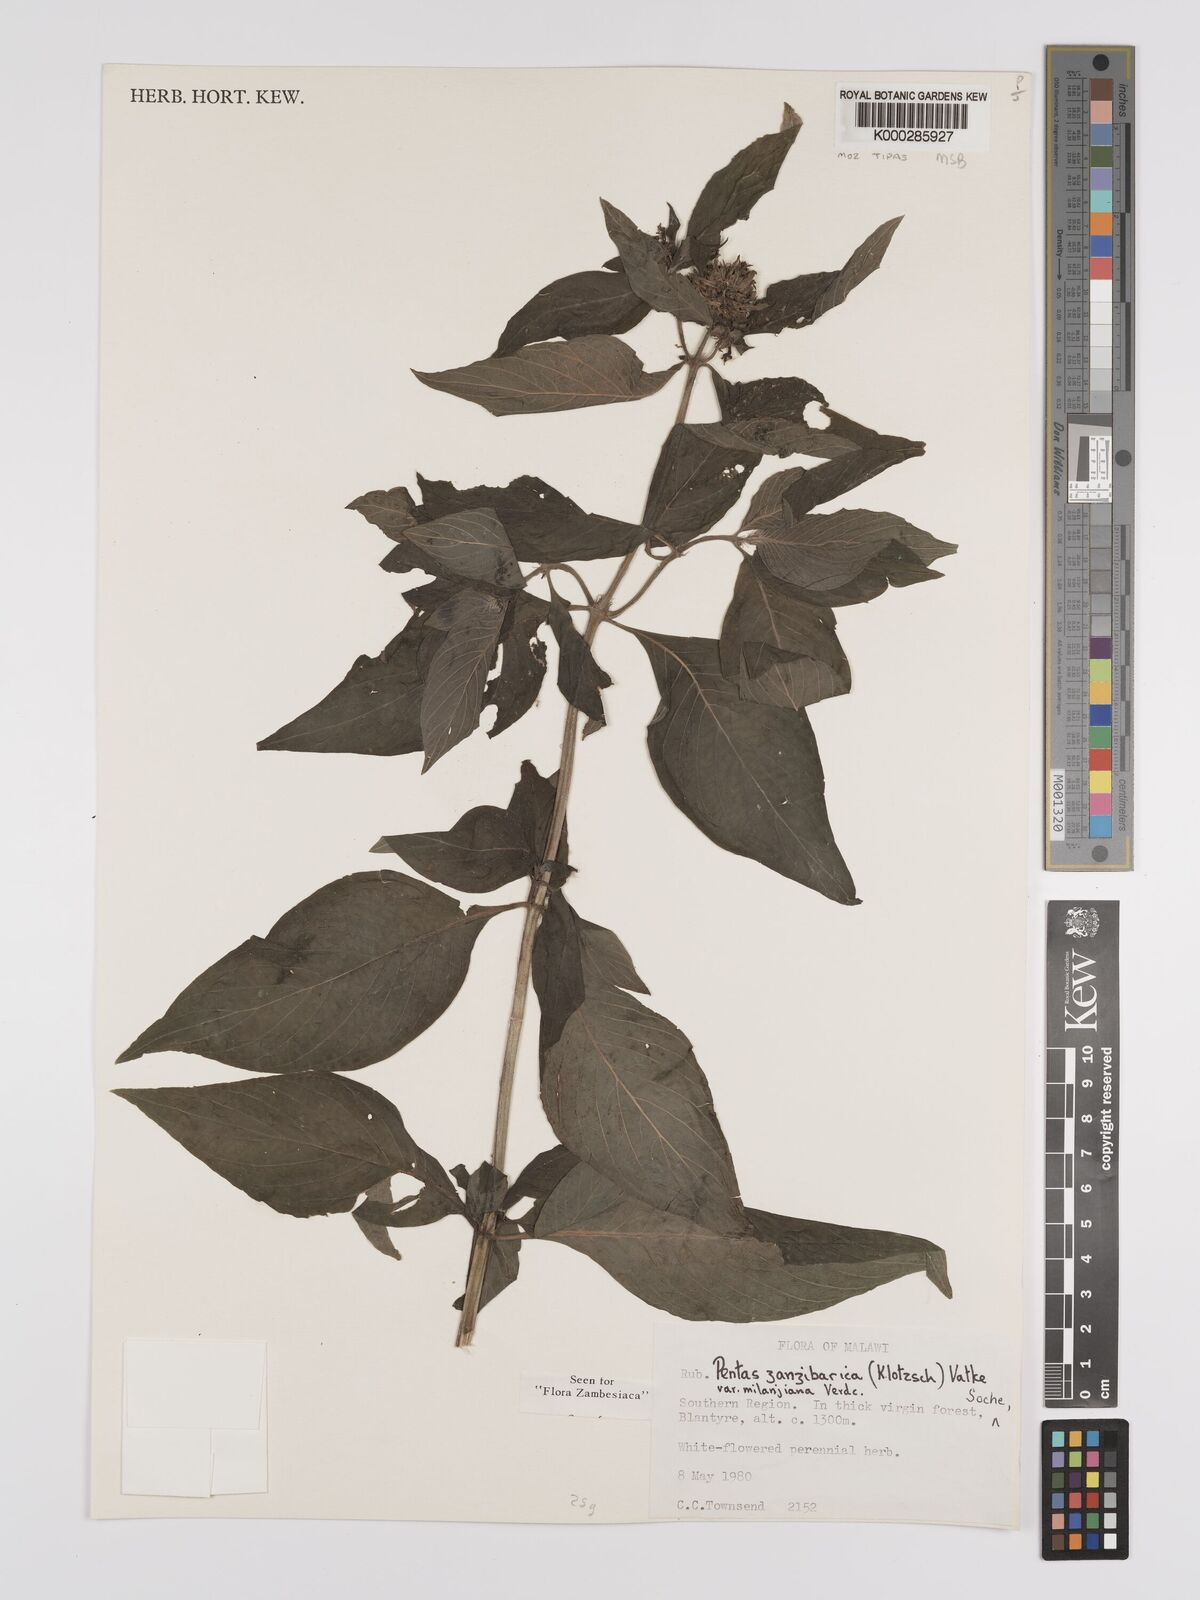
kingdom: Plantae
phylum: Tracheophyta
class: Magnoliopsida
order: Gentianales
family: Rubiaceae
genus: Pentas
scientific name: Pentas zanzibarica
